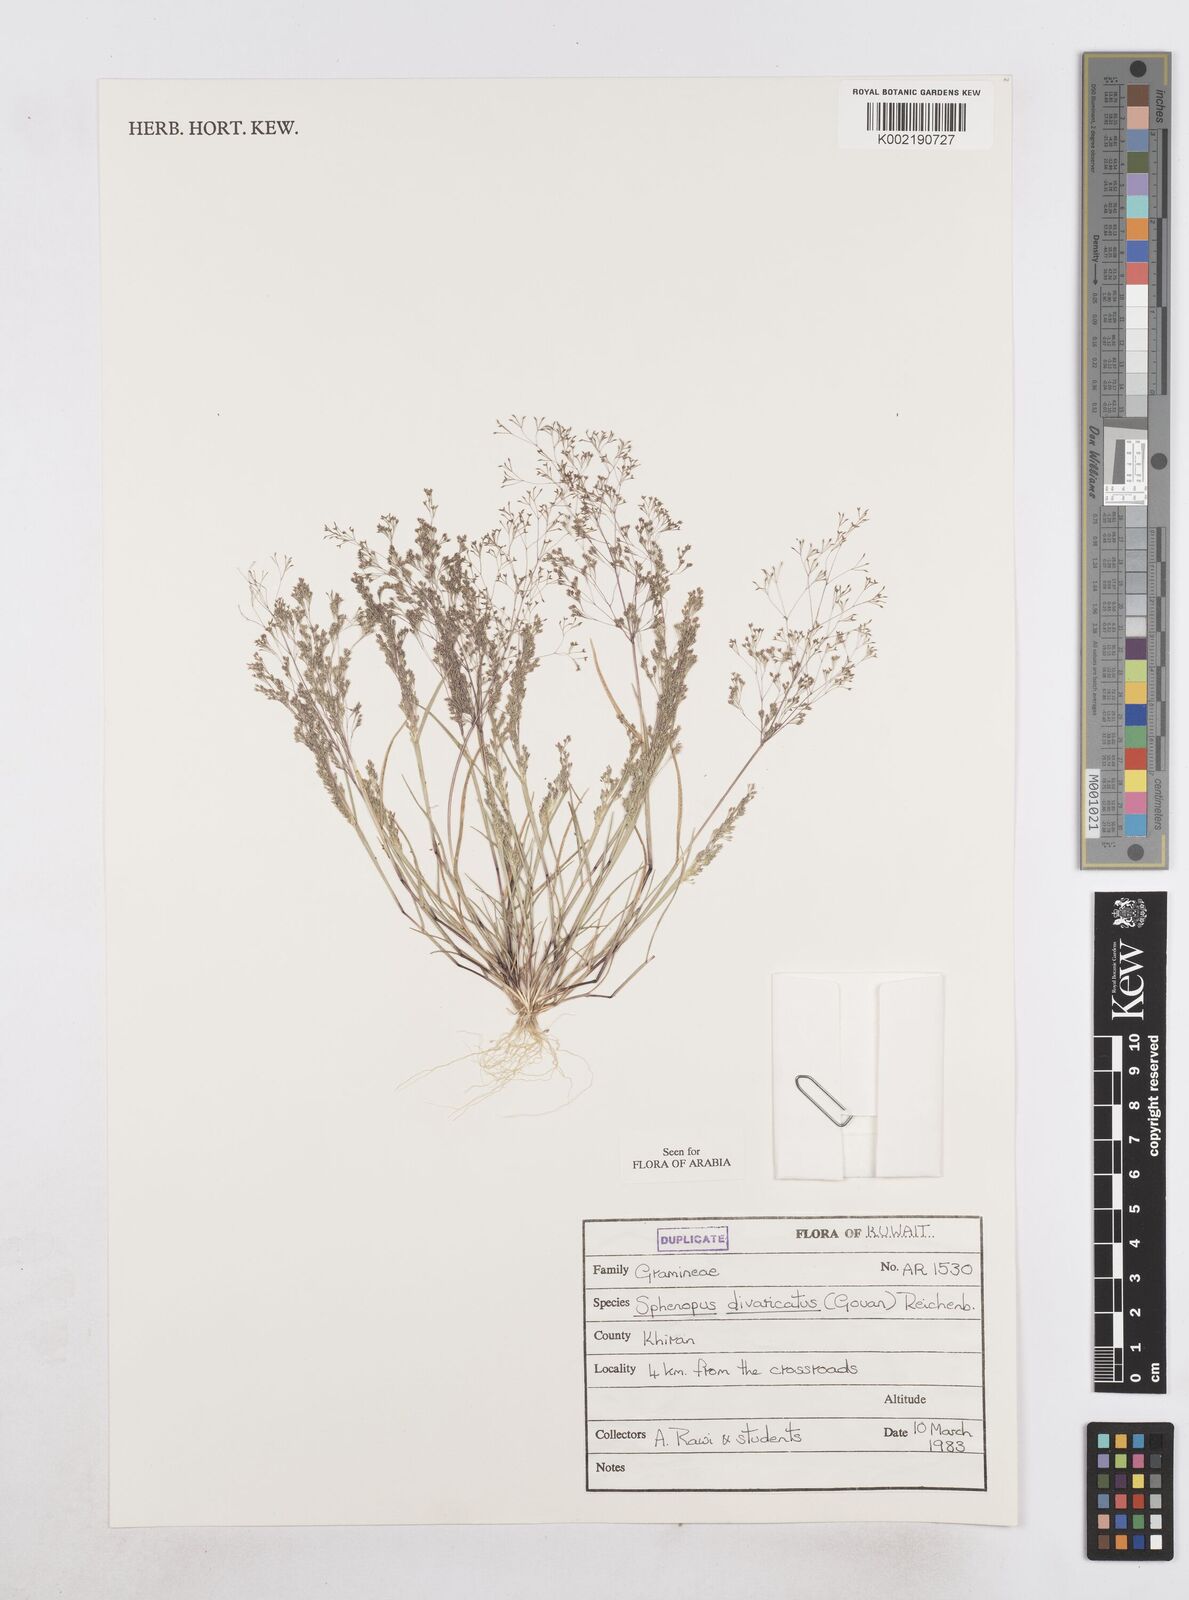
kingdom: Plantae
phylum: Tracheophyta
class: Liliopsida
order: Poales
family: Poaceae
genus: Sphenopus
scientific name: Sphenopus divaricatus
